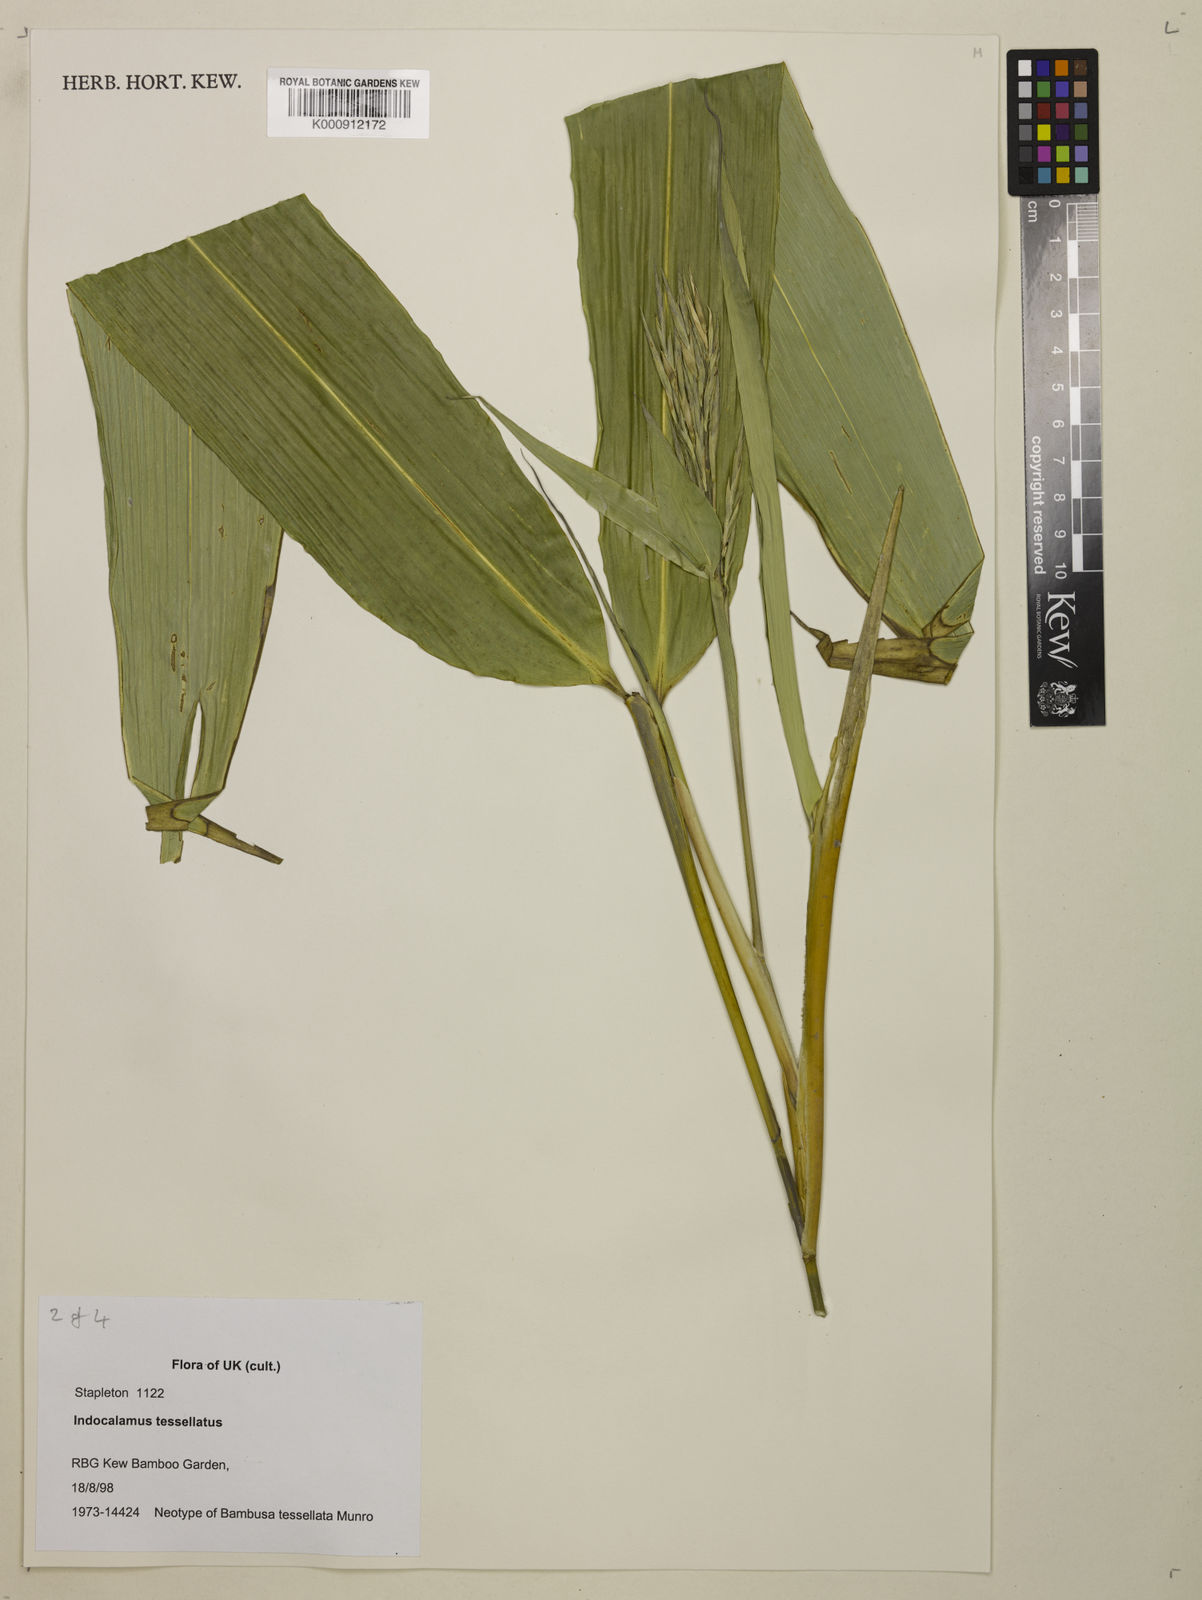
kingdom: Plantae
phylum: Tracheophyta
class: Liliopsida
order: Poales
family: Poaceae
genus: Indocalamus
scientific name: Indocalamus tessellatus
